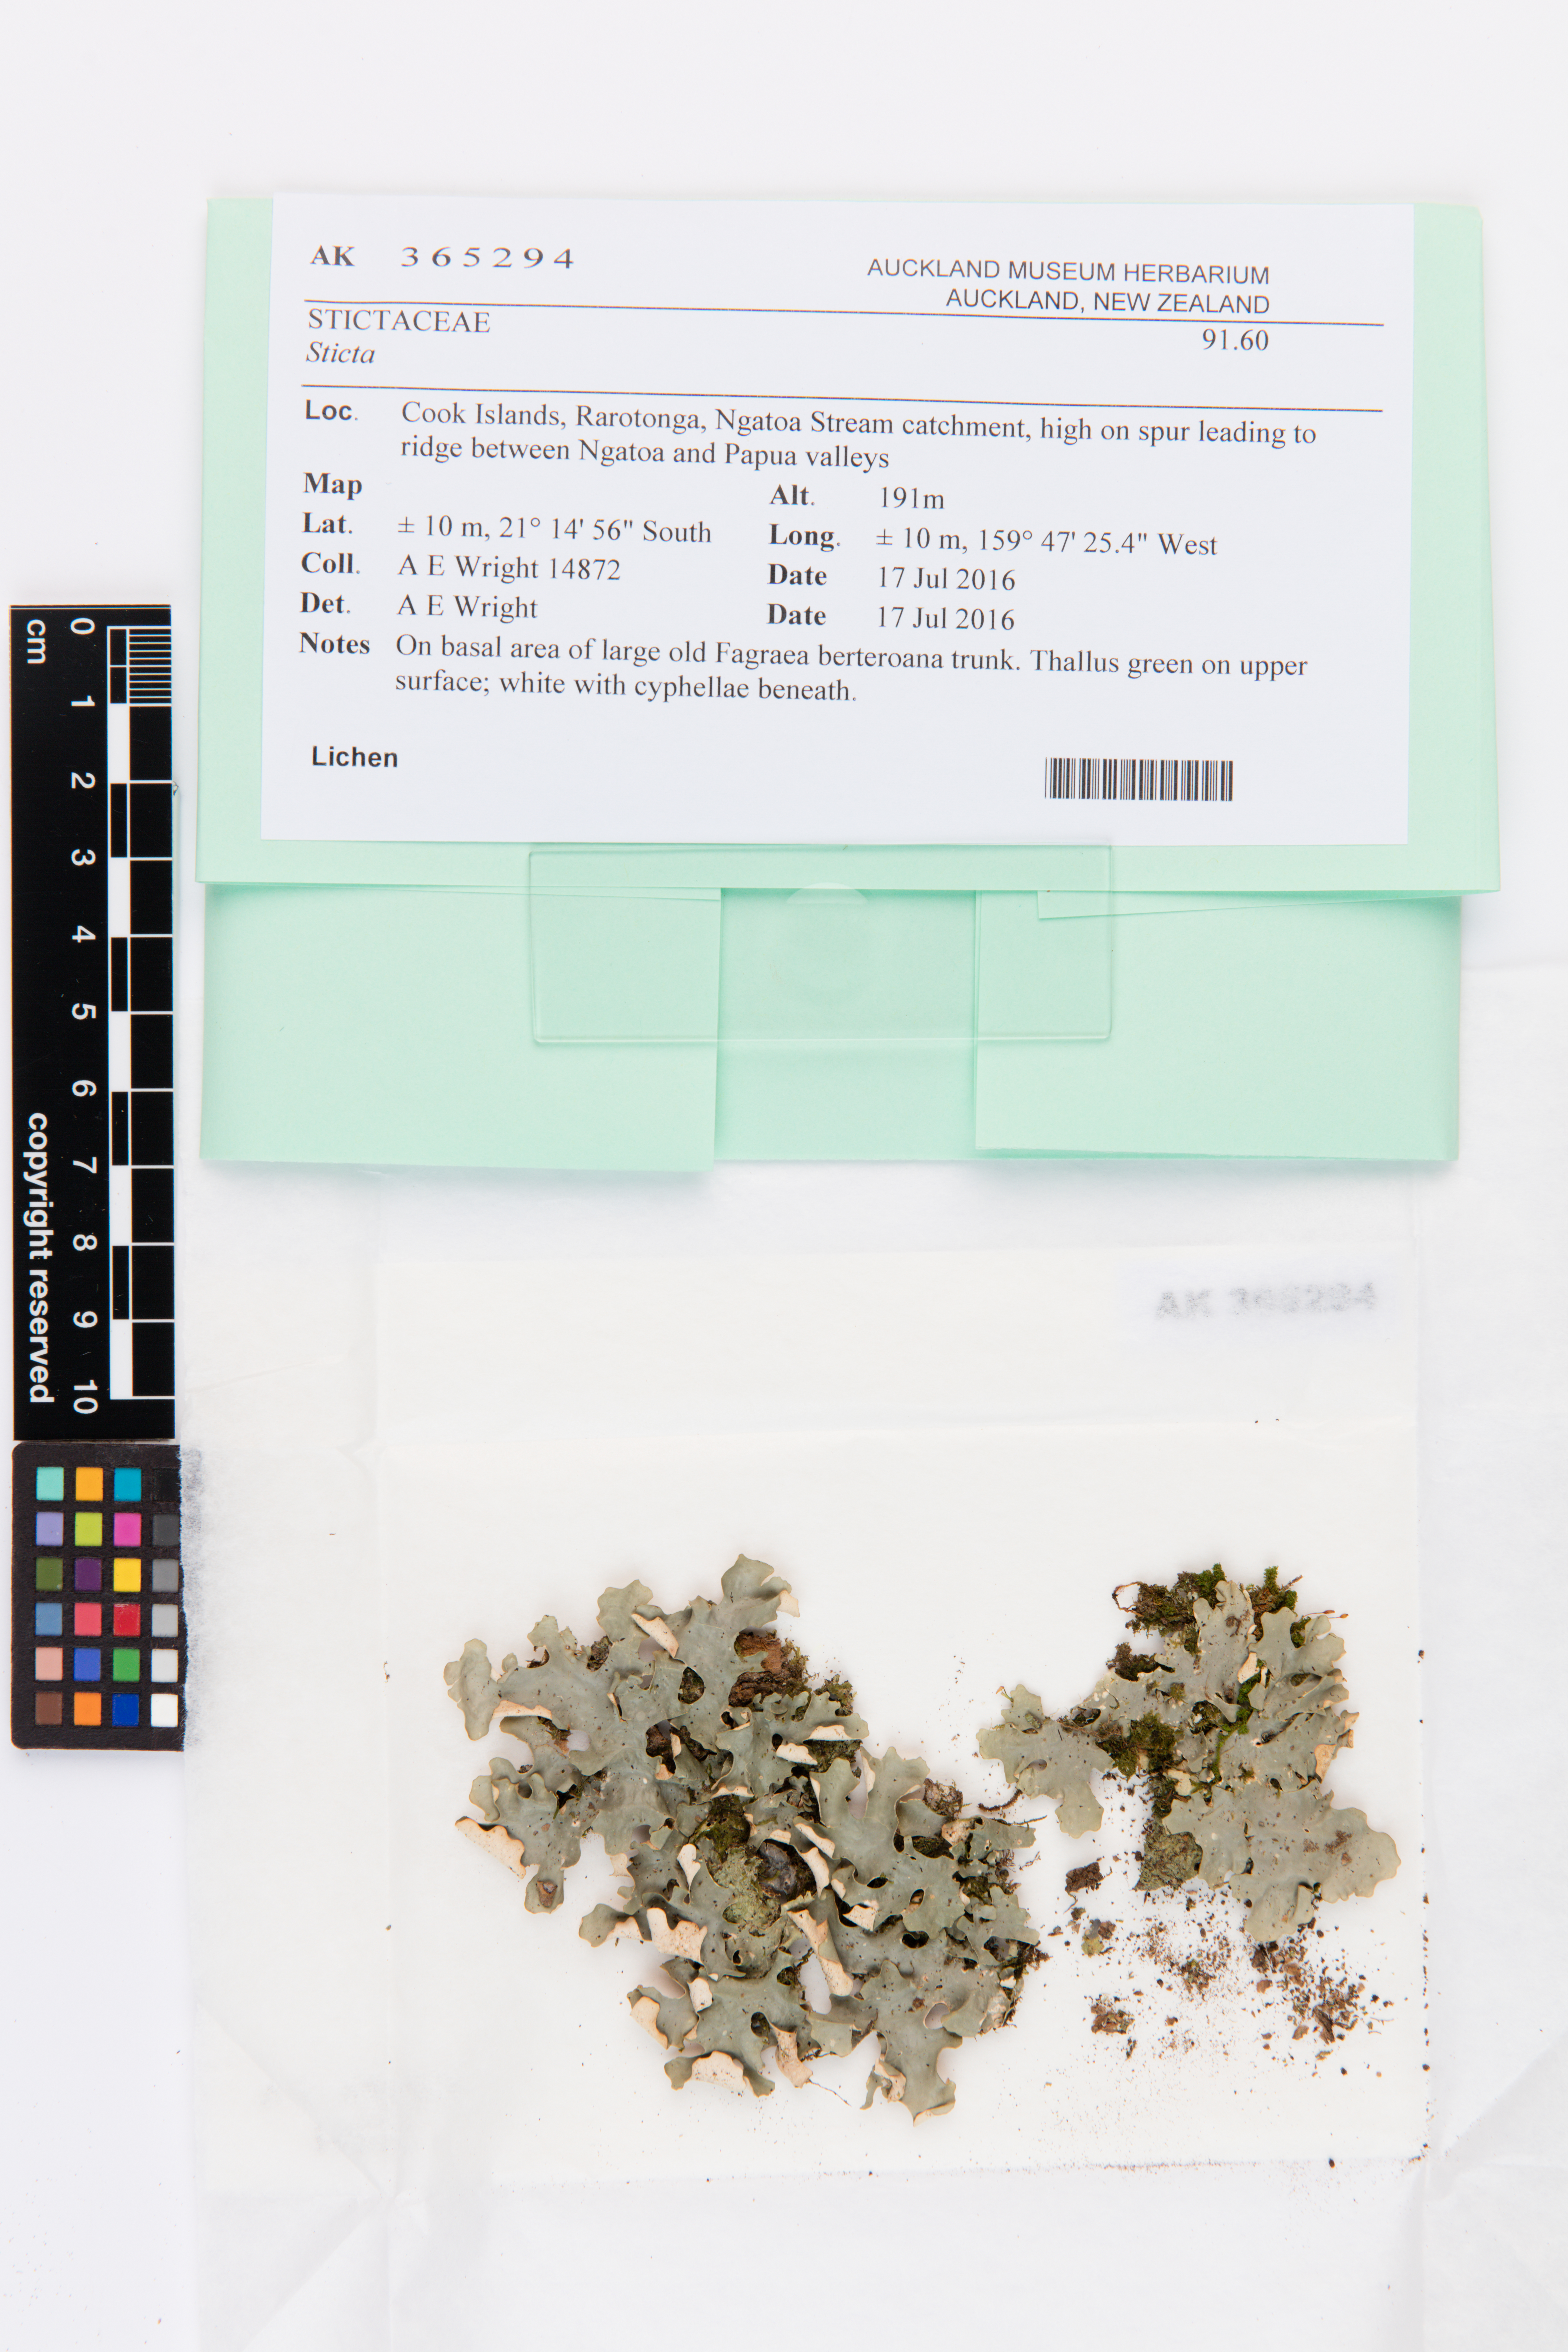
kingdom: Fungi
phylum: Ascomycota
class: Lecanoromycetes
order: Peltigerales
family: Lobariaceae
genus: Sticta
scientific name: Sticta
